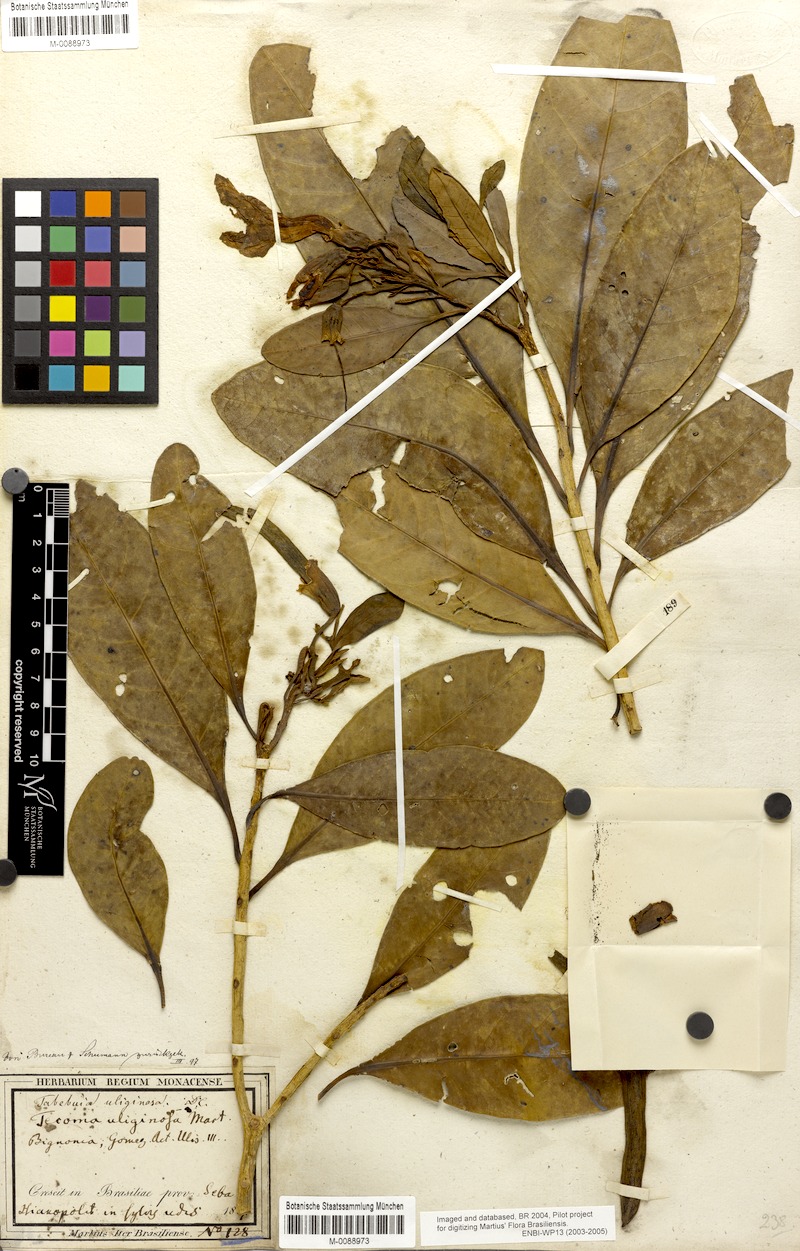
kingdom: Plantae
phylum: Tracheophyta
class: Magnoliopsida
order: Lamiales
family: Bignoniaceae
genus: Tabebuia
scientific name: Tabebuia cassinoides
